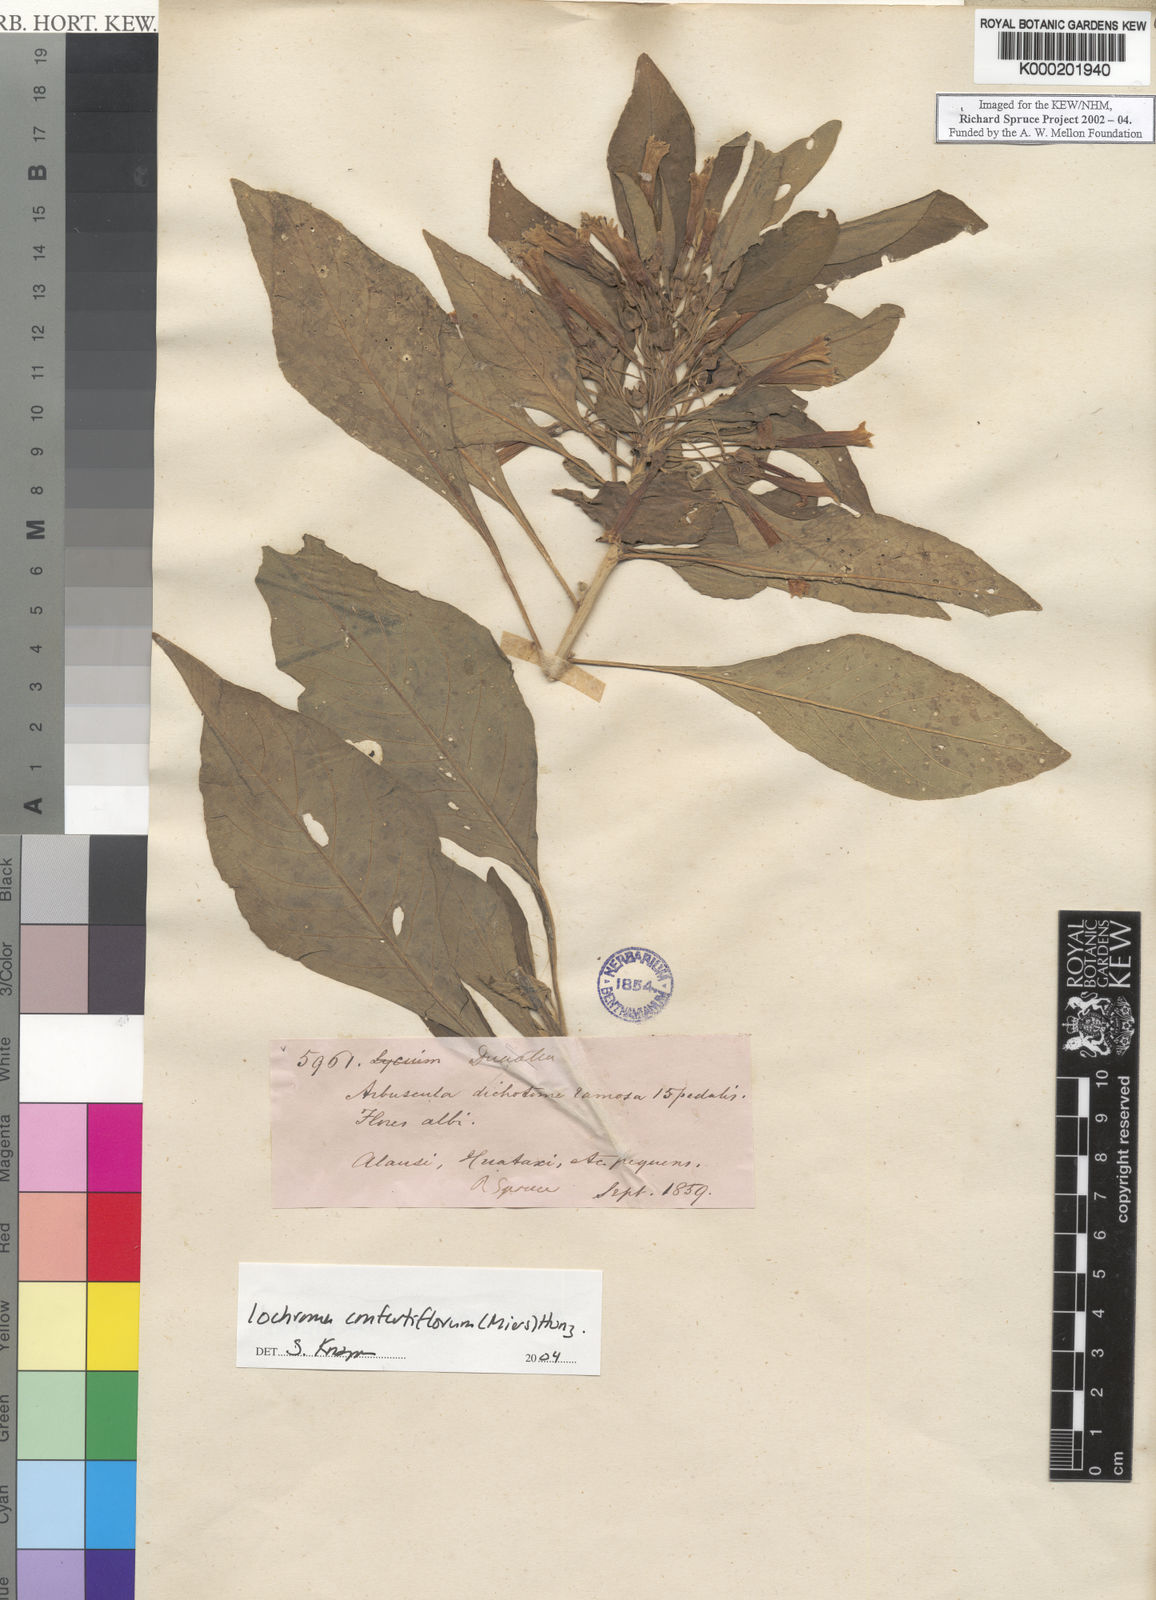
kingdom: Plantae
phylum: Tracheophyta
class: Magnoliopsida
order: Solanales
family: Solanaceae
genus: Iochroma
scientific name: Iochroma
